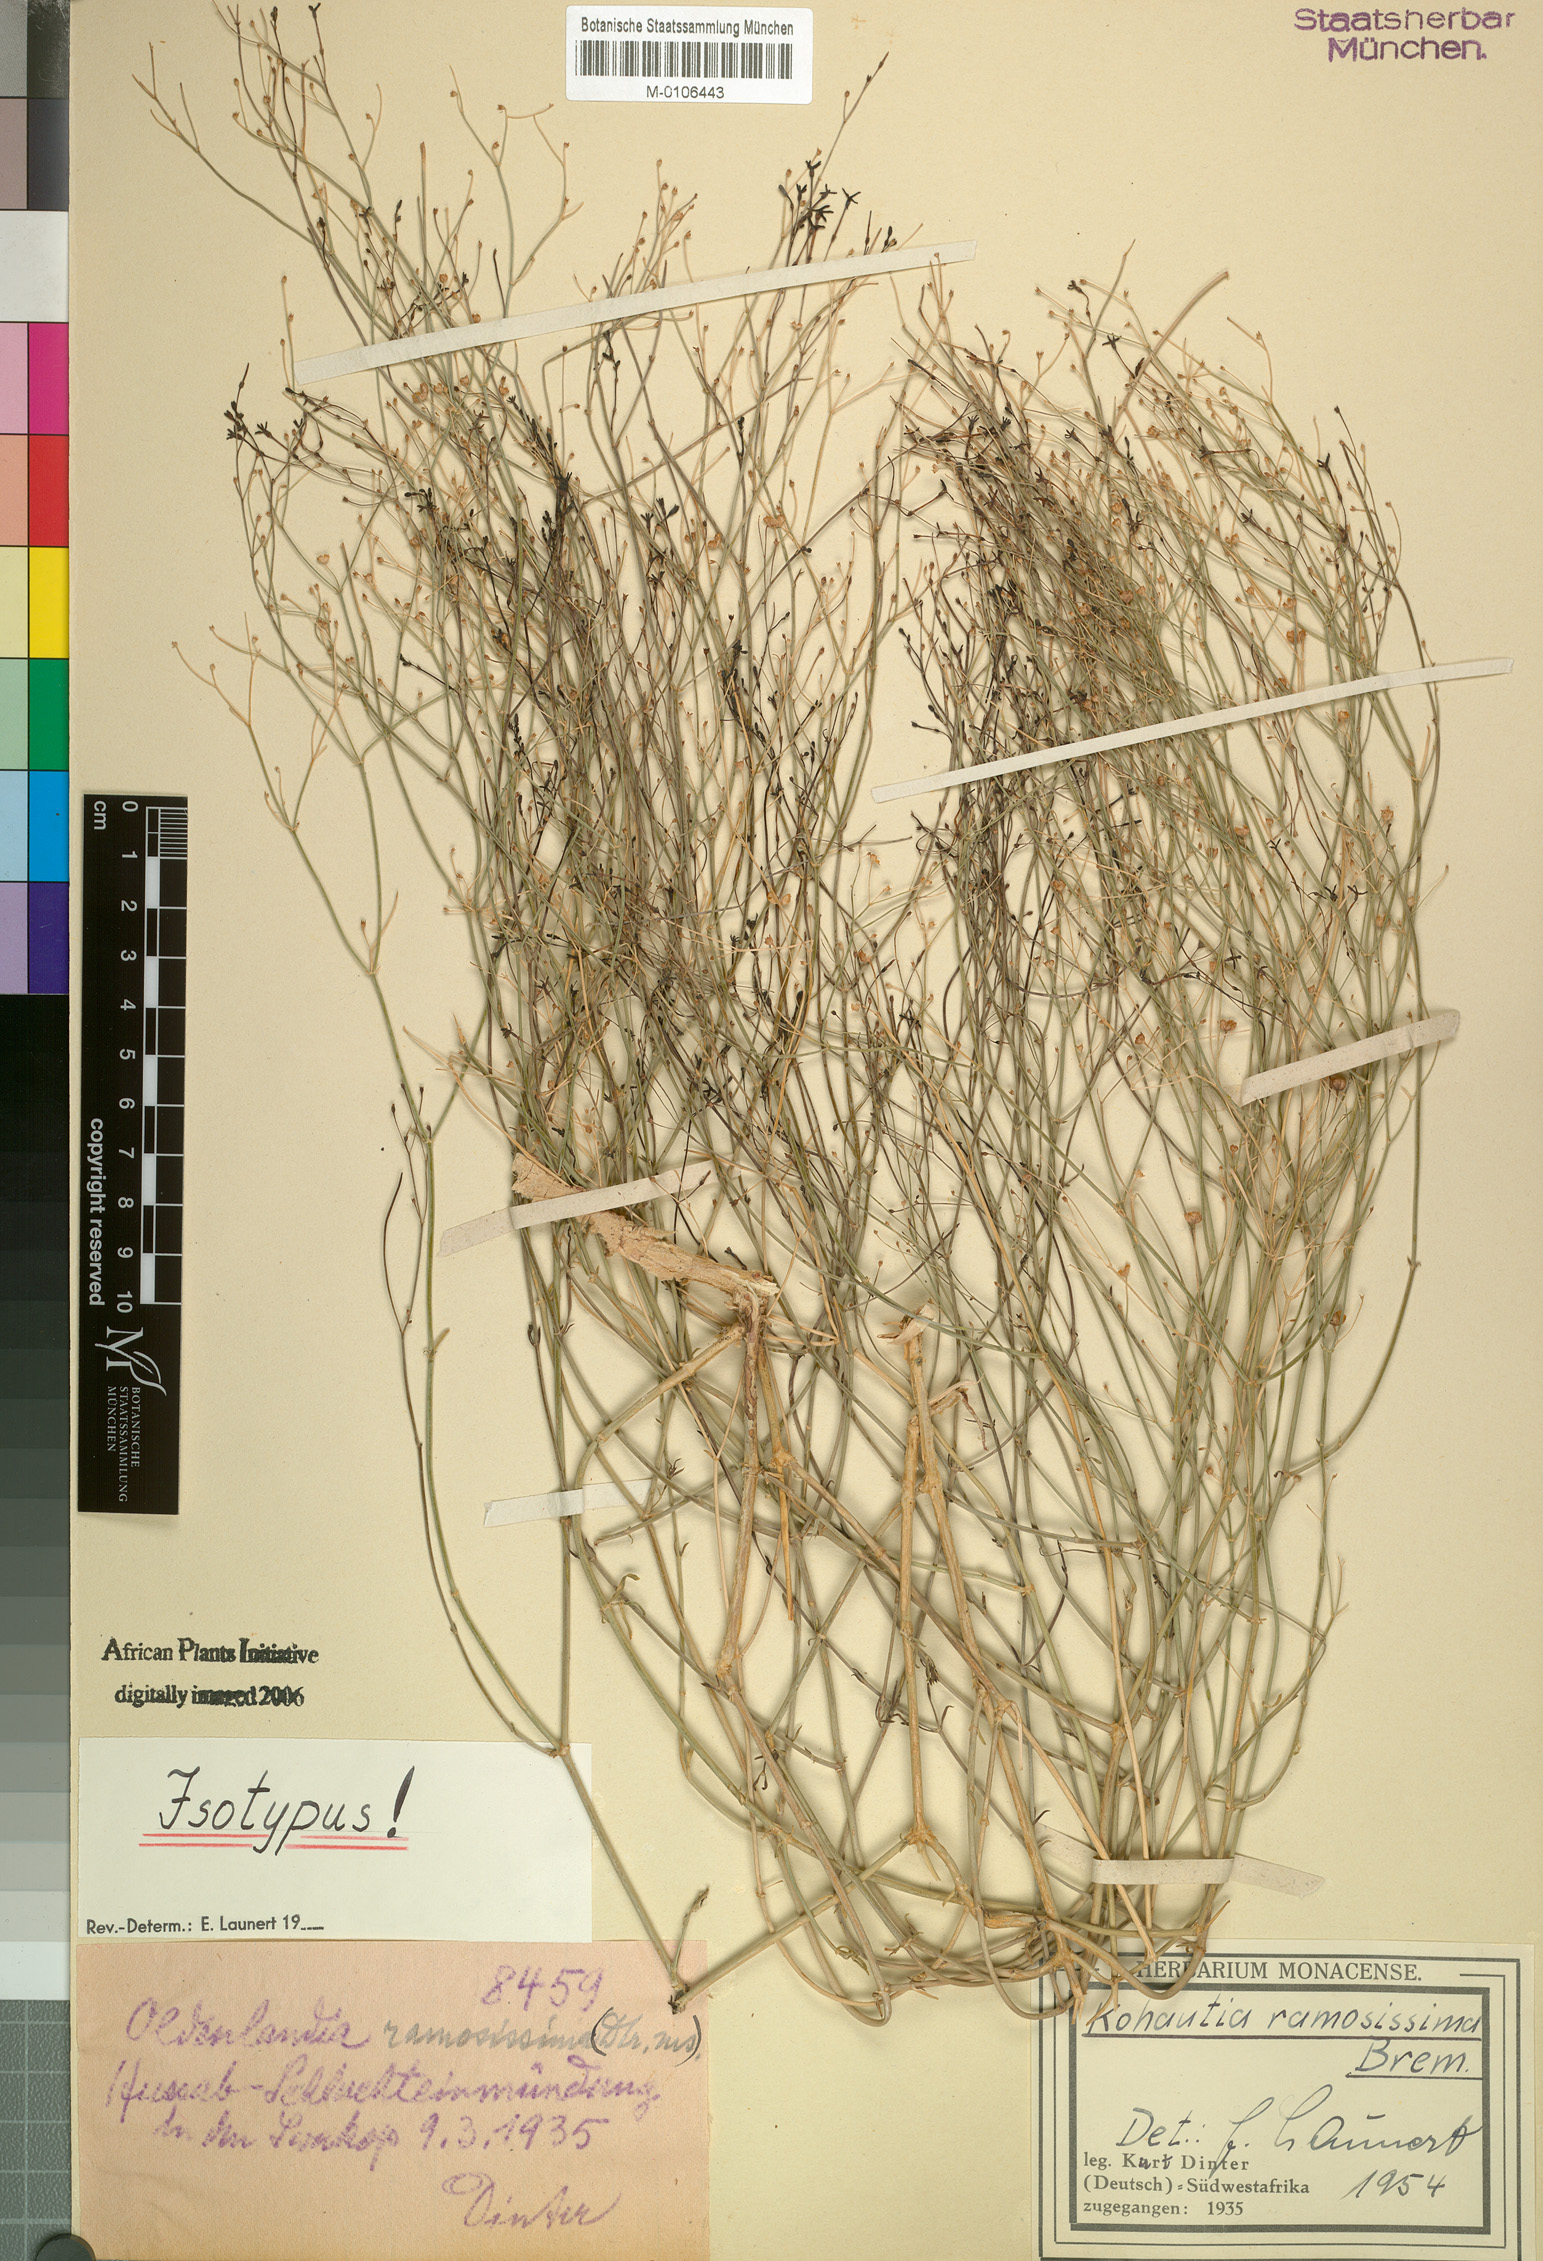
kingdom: Plantae
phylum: Tracheophyta
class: Magnoliopsida
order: Gentianales
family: Rubiaceae
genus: Kohautia
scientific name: Kohautia ramosissima
